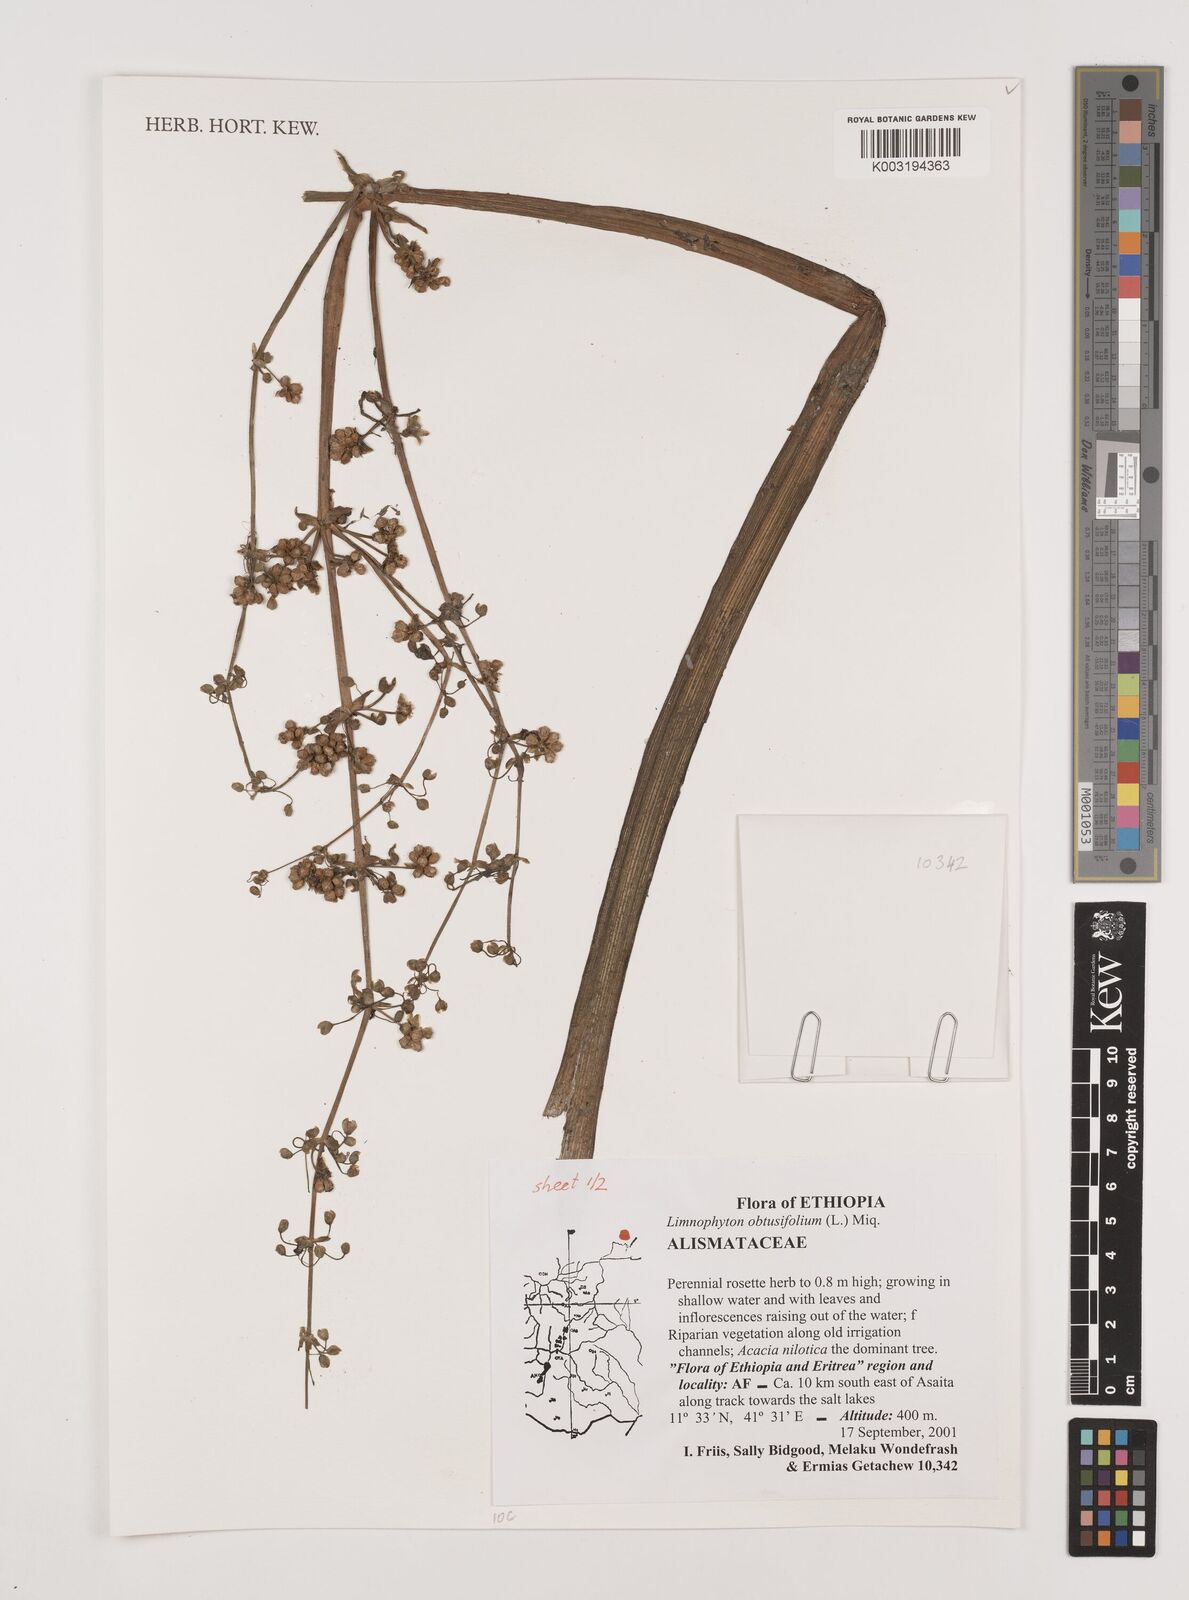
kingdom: Plantae
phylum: Tracheophyta
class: Liliopsida
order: Alismatales
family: Alismataceae
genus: Limnophyton
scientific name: Limnophyton obtusifolium
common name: Arrow head
